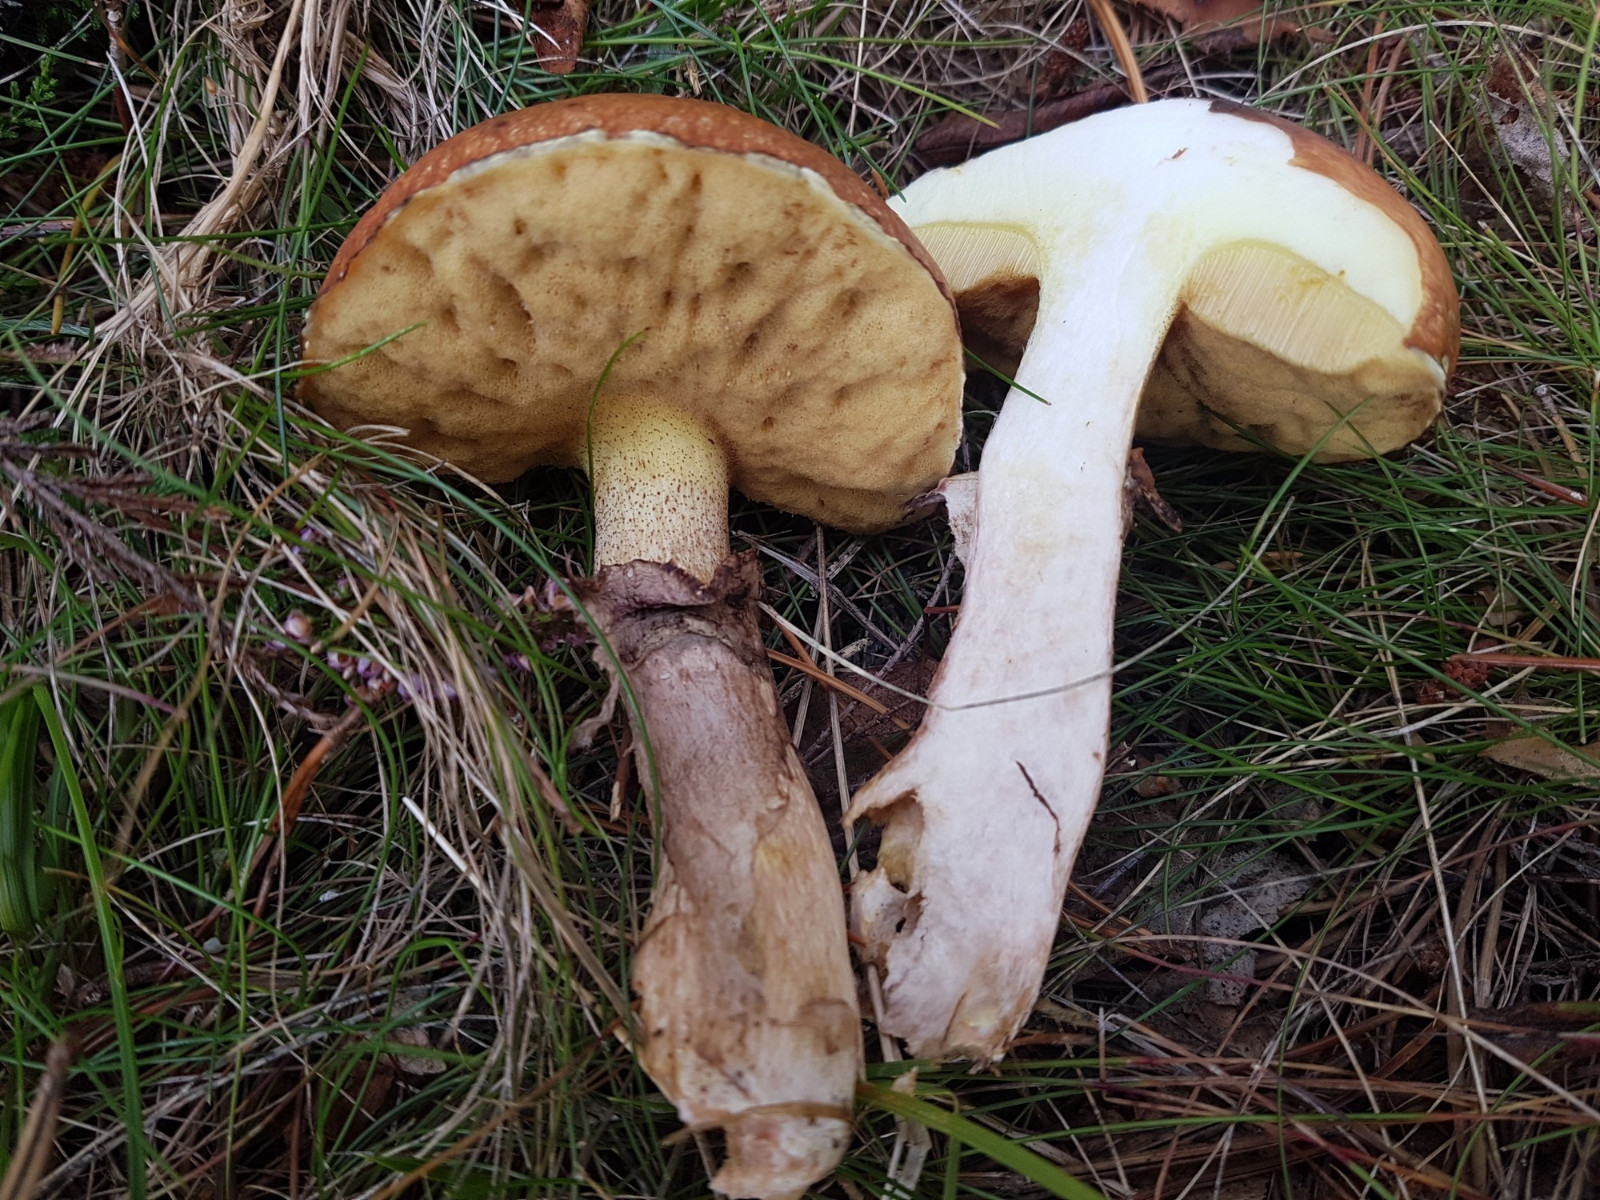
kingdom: Fungi
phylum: Basidiomycota
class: Agaricomycetes
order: Boletales
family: Suillaceae
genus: Suillus
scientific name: Suillus luteus
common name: brungul slimrørhat
